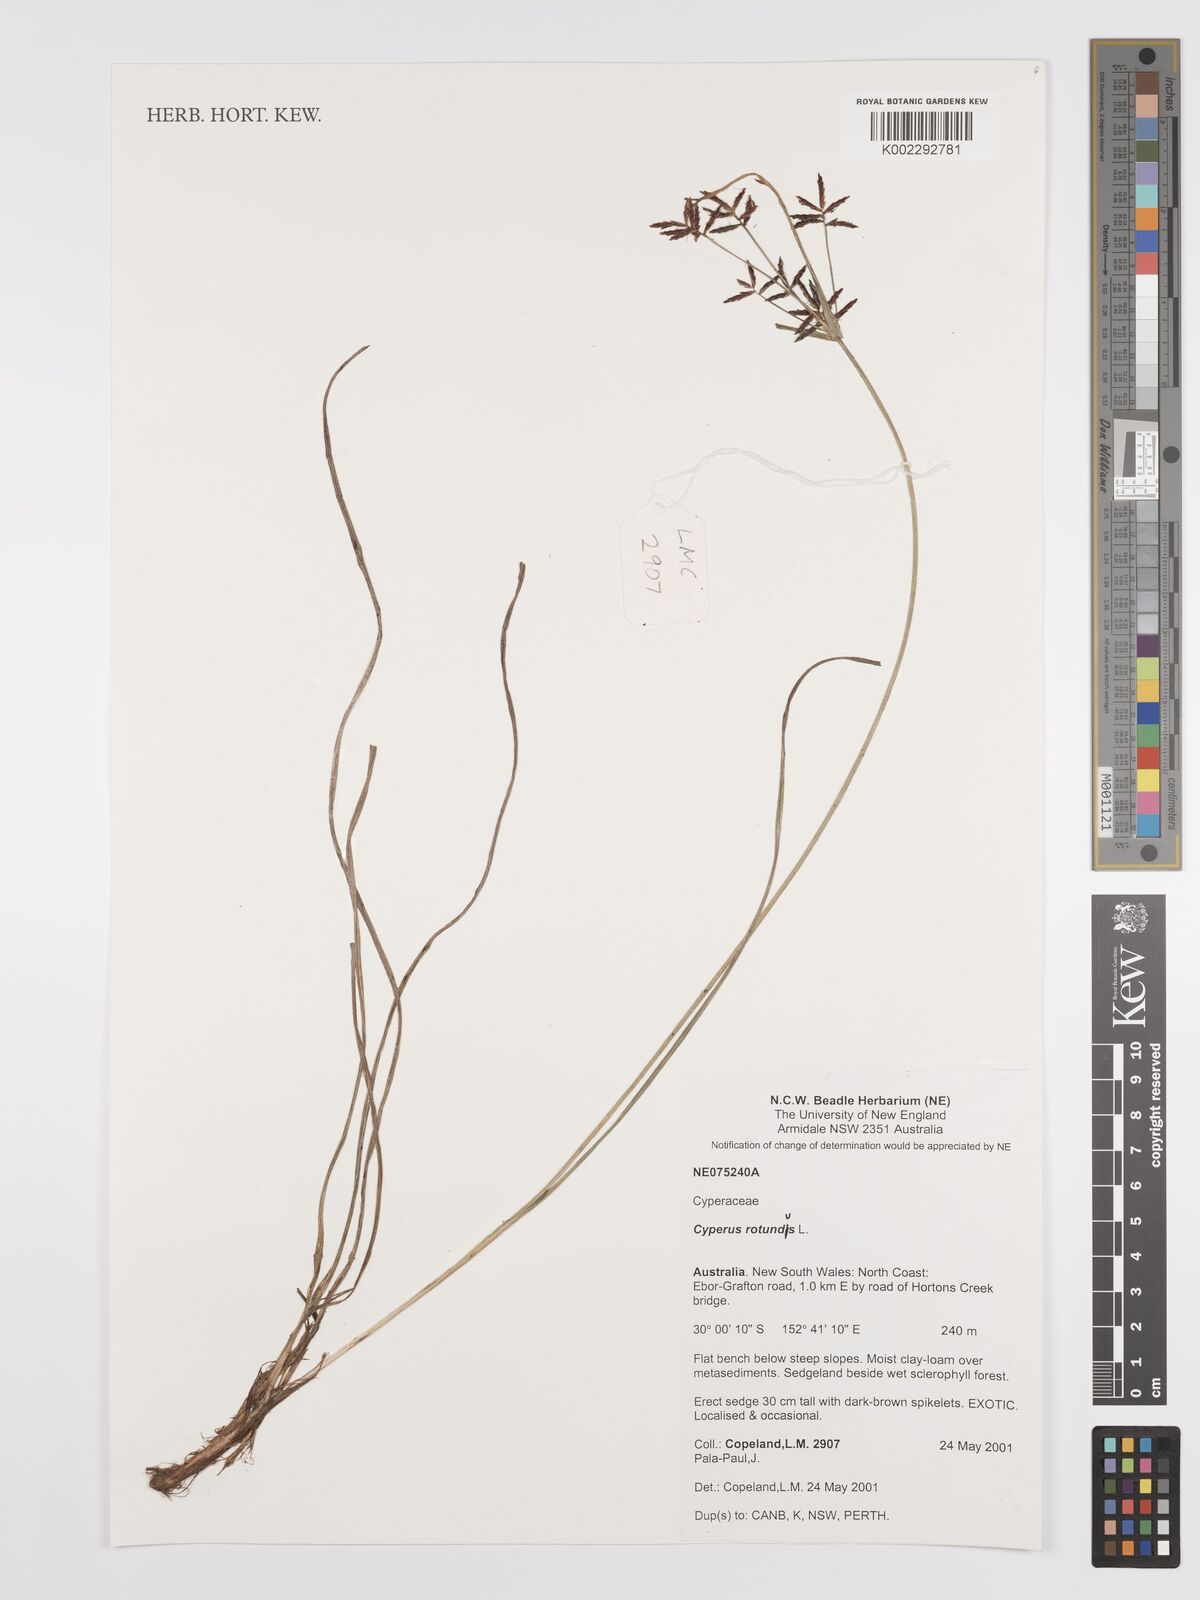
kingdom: Plantae
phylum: Tracheophyta
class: Liliopsida
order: Poales
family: Cyperaceae
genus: Cyperus
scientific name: Cyperus rotundus
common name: Nutgrass
